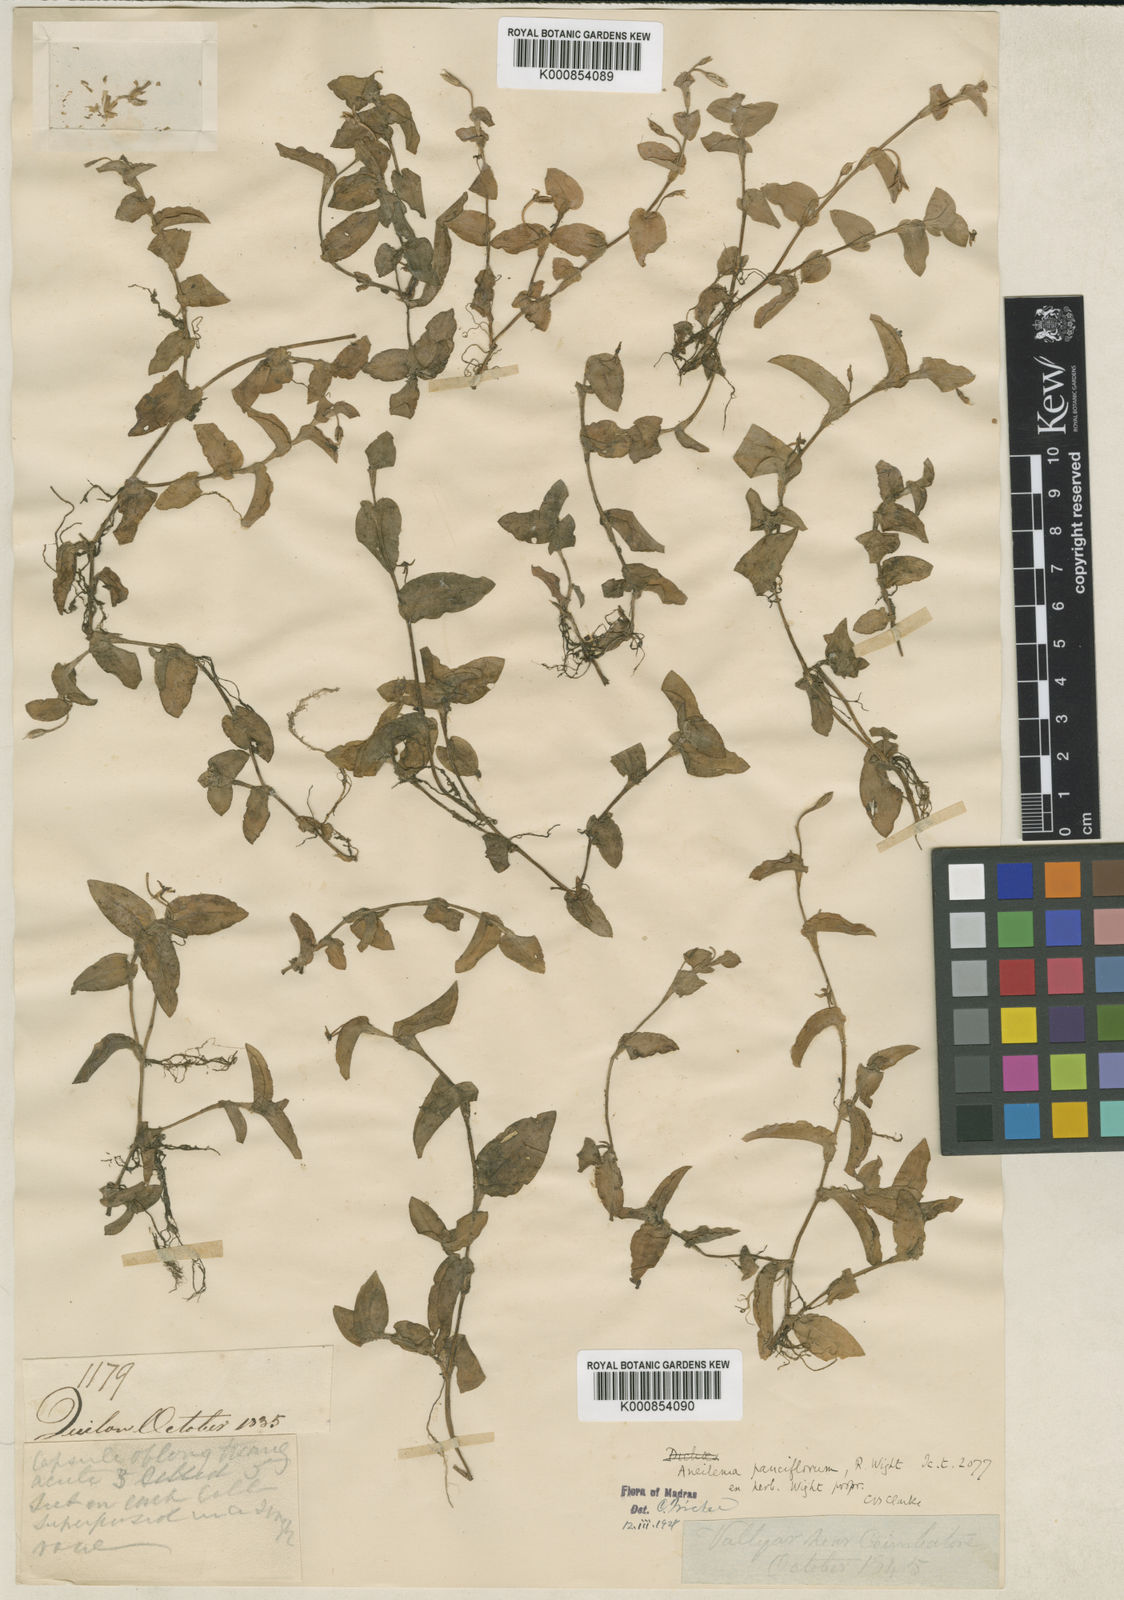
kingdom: Plantae
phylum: Tracheophyta
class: Liliopsida
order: Commelinales
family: Commelinaceae
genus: Murdannia
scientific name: Murdannia
